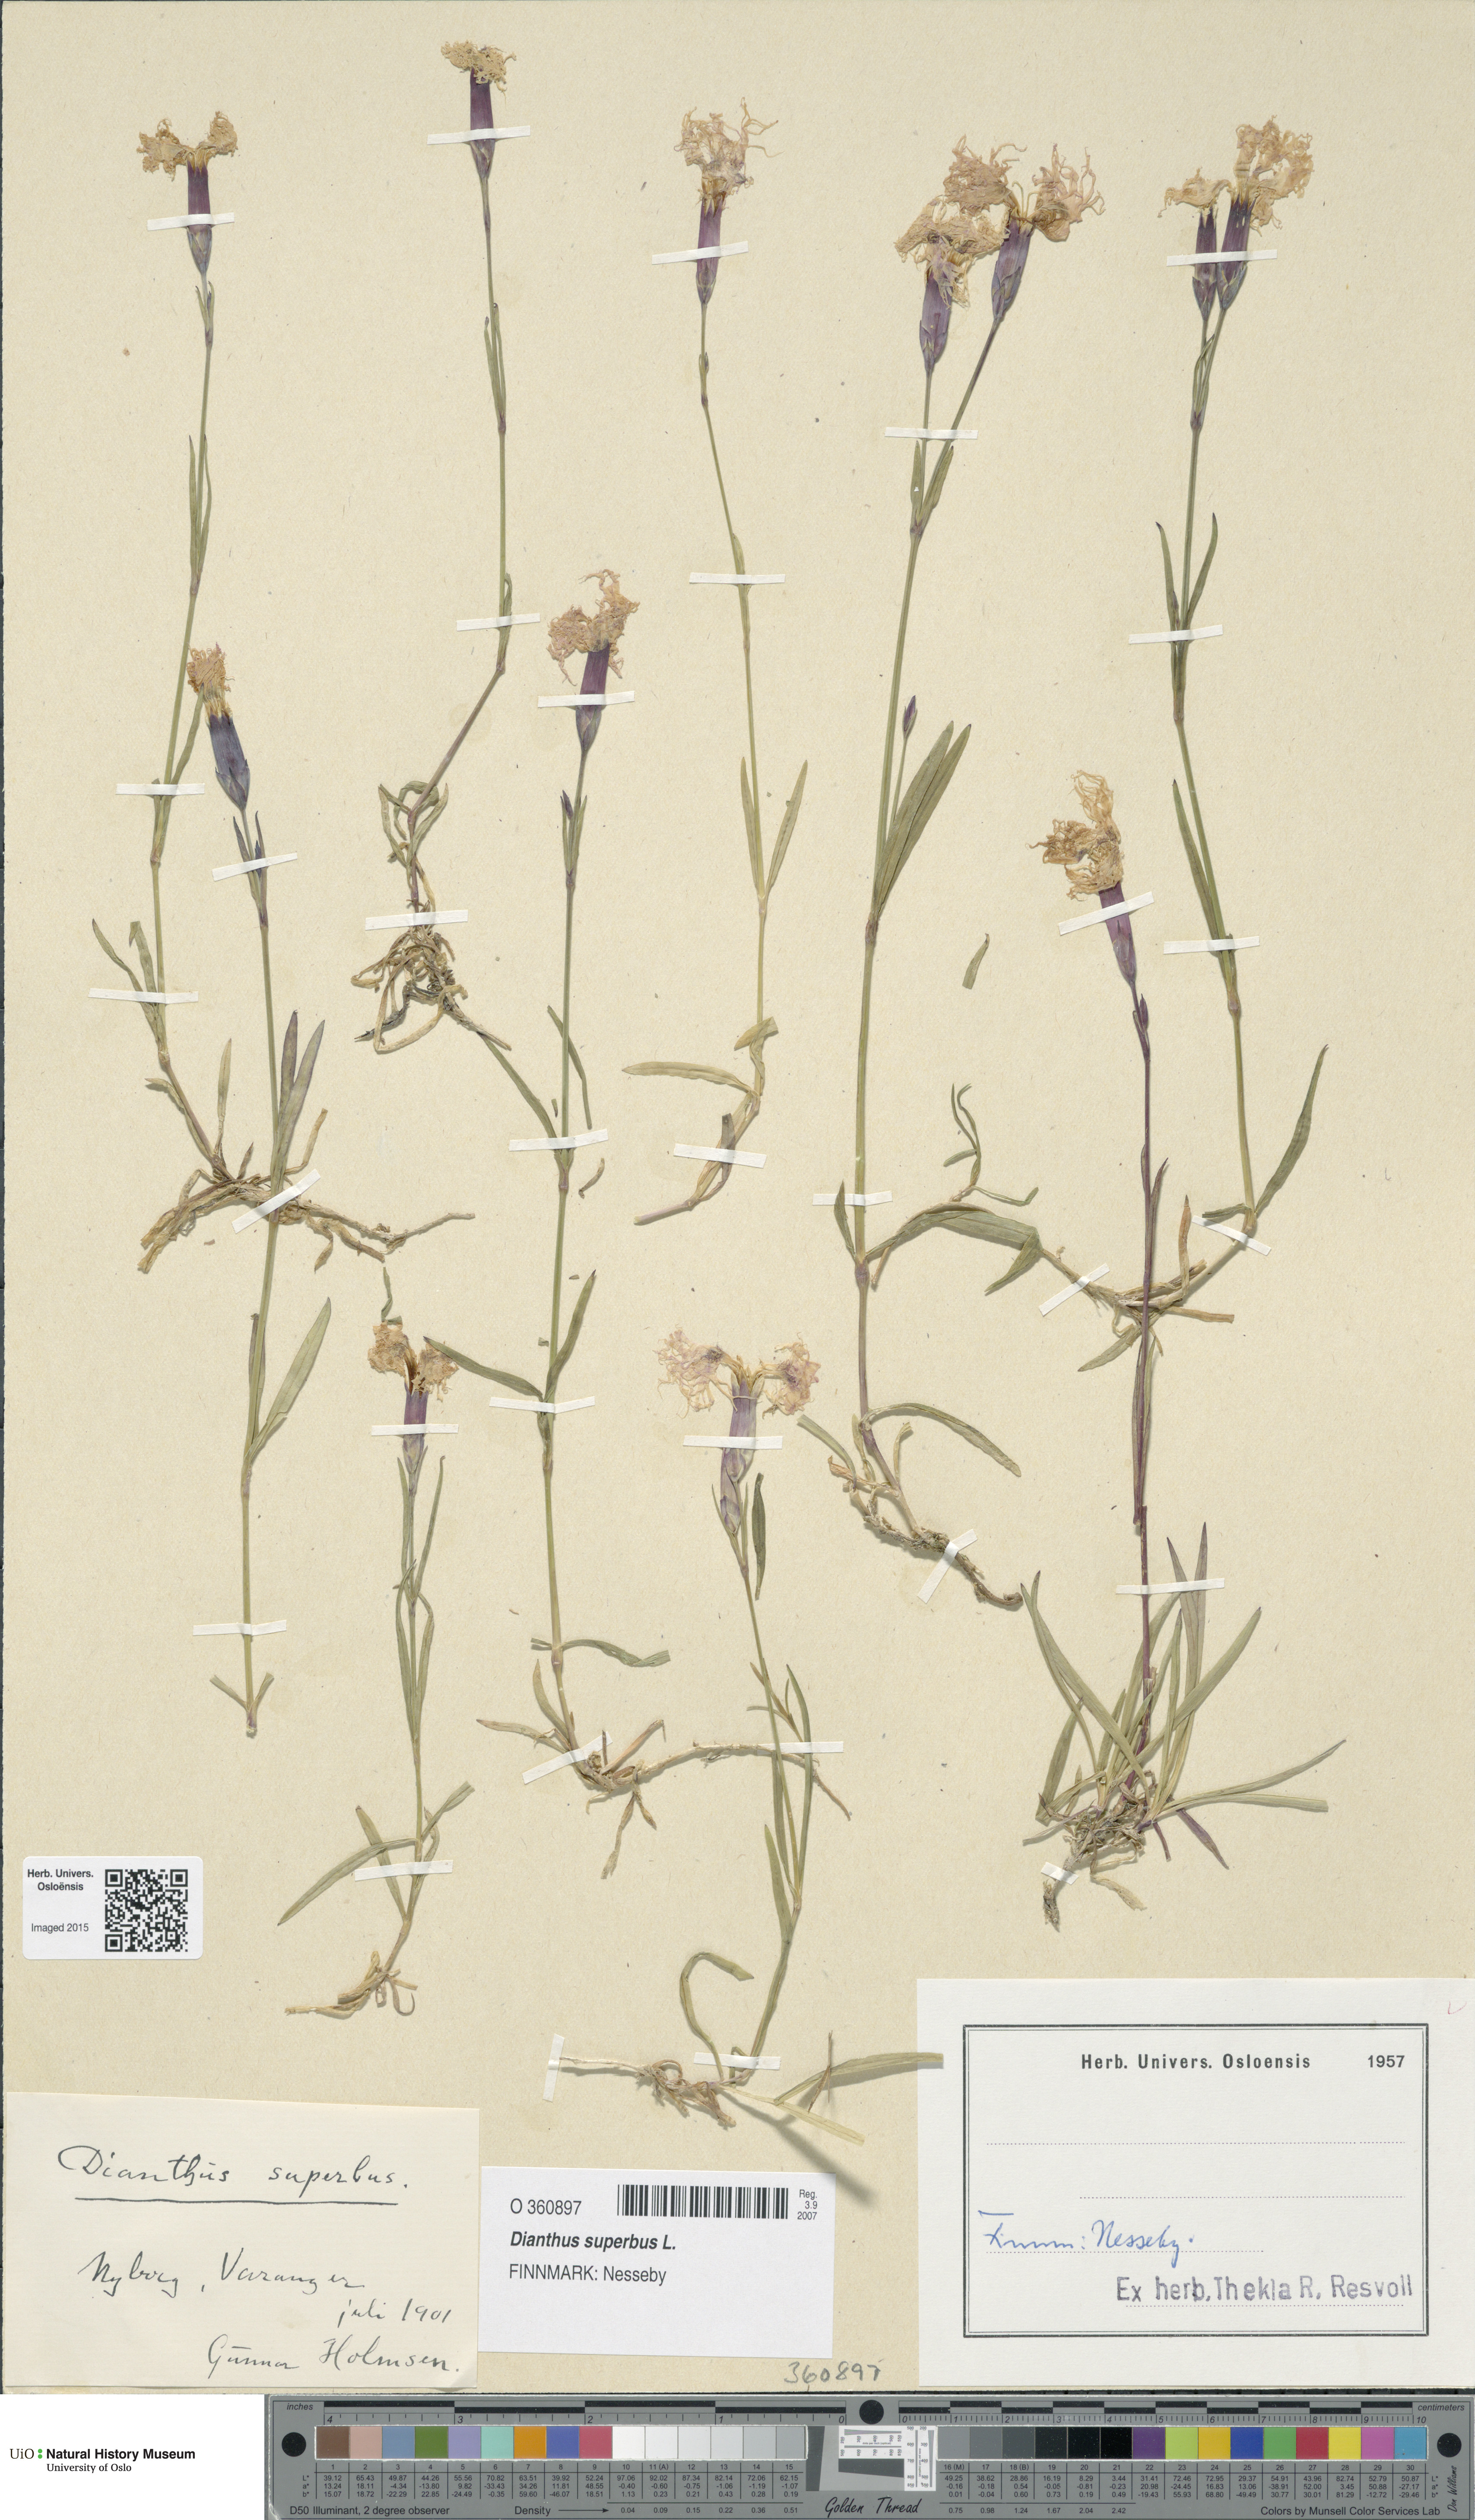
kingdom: Plantae
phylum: Tracheophyta
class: Magnoliopsida
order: Caryophyllales
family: Caryophyllaceae
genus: Dianthus
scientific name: Dianthus superbus
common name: Fringed pink
